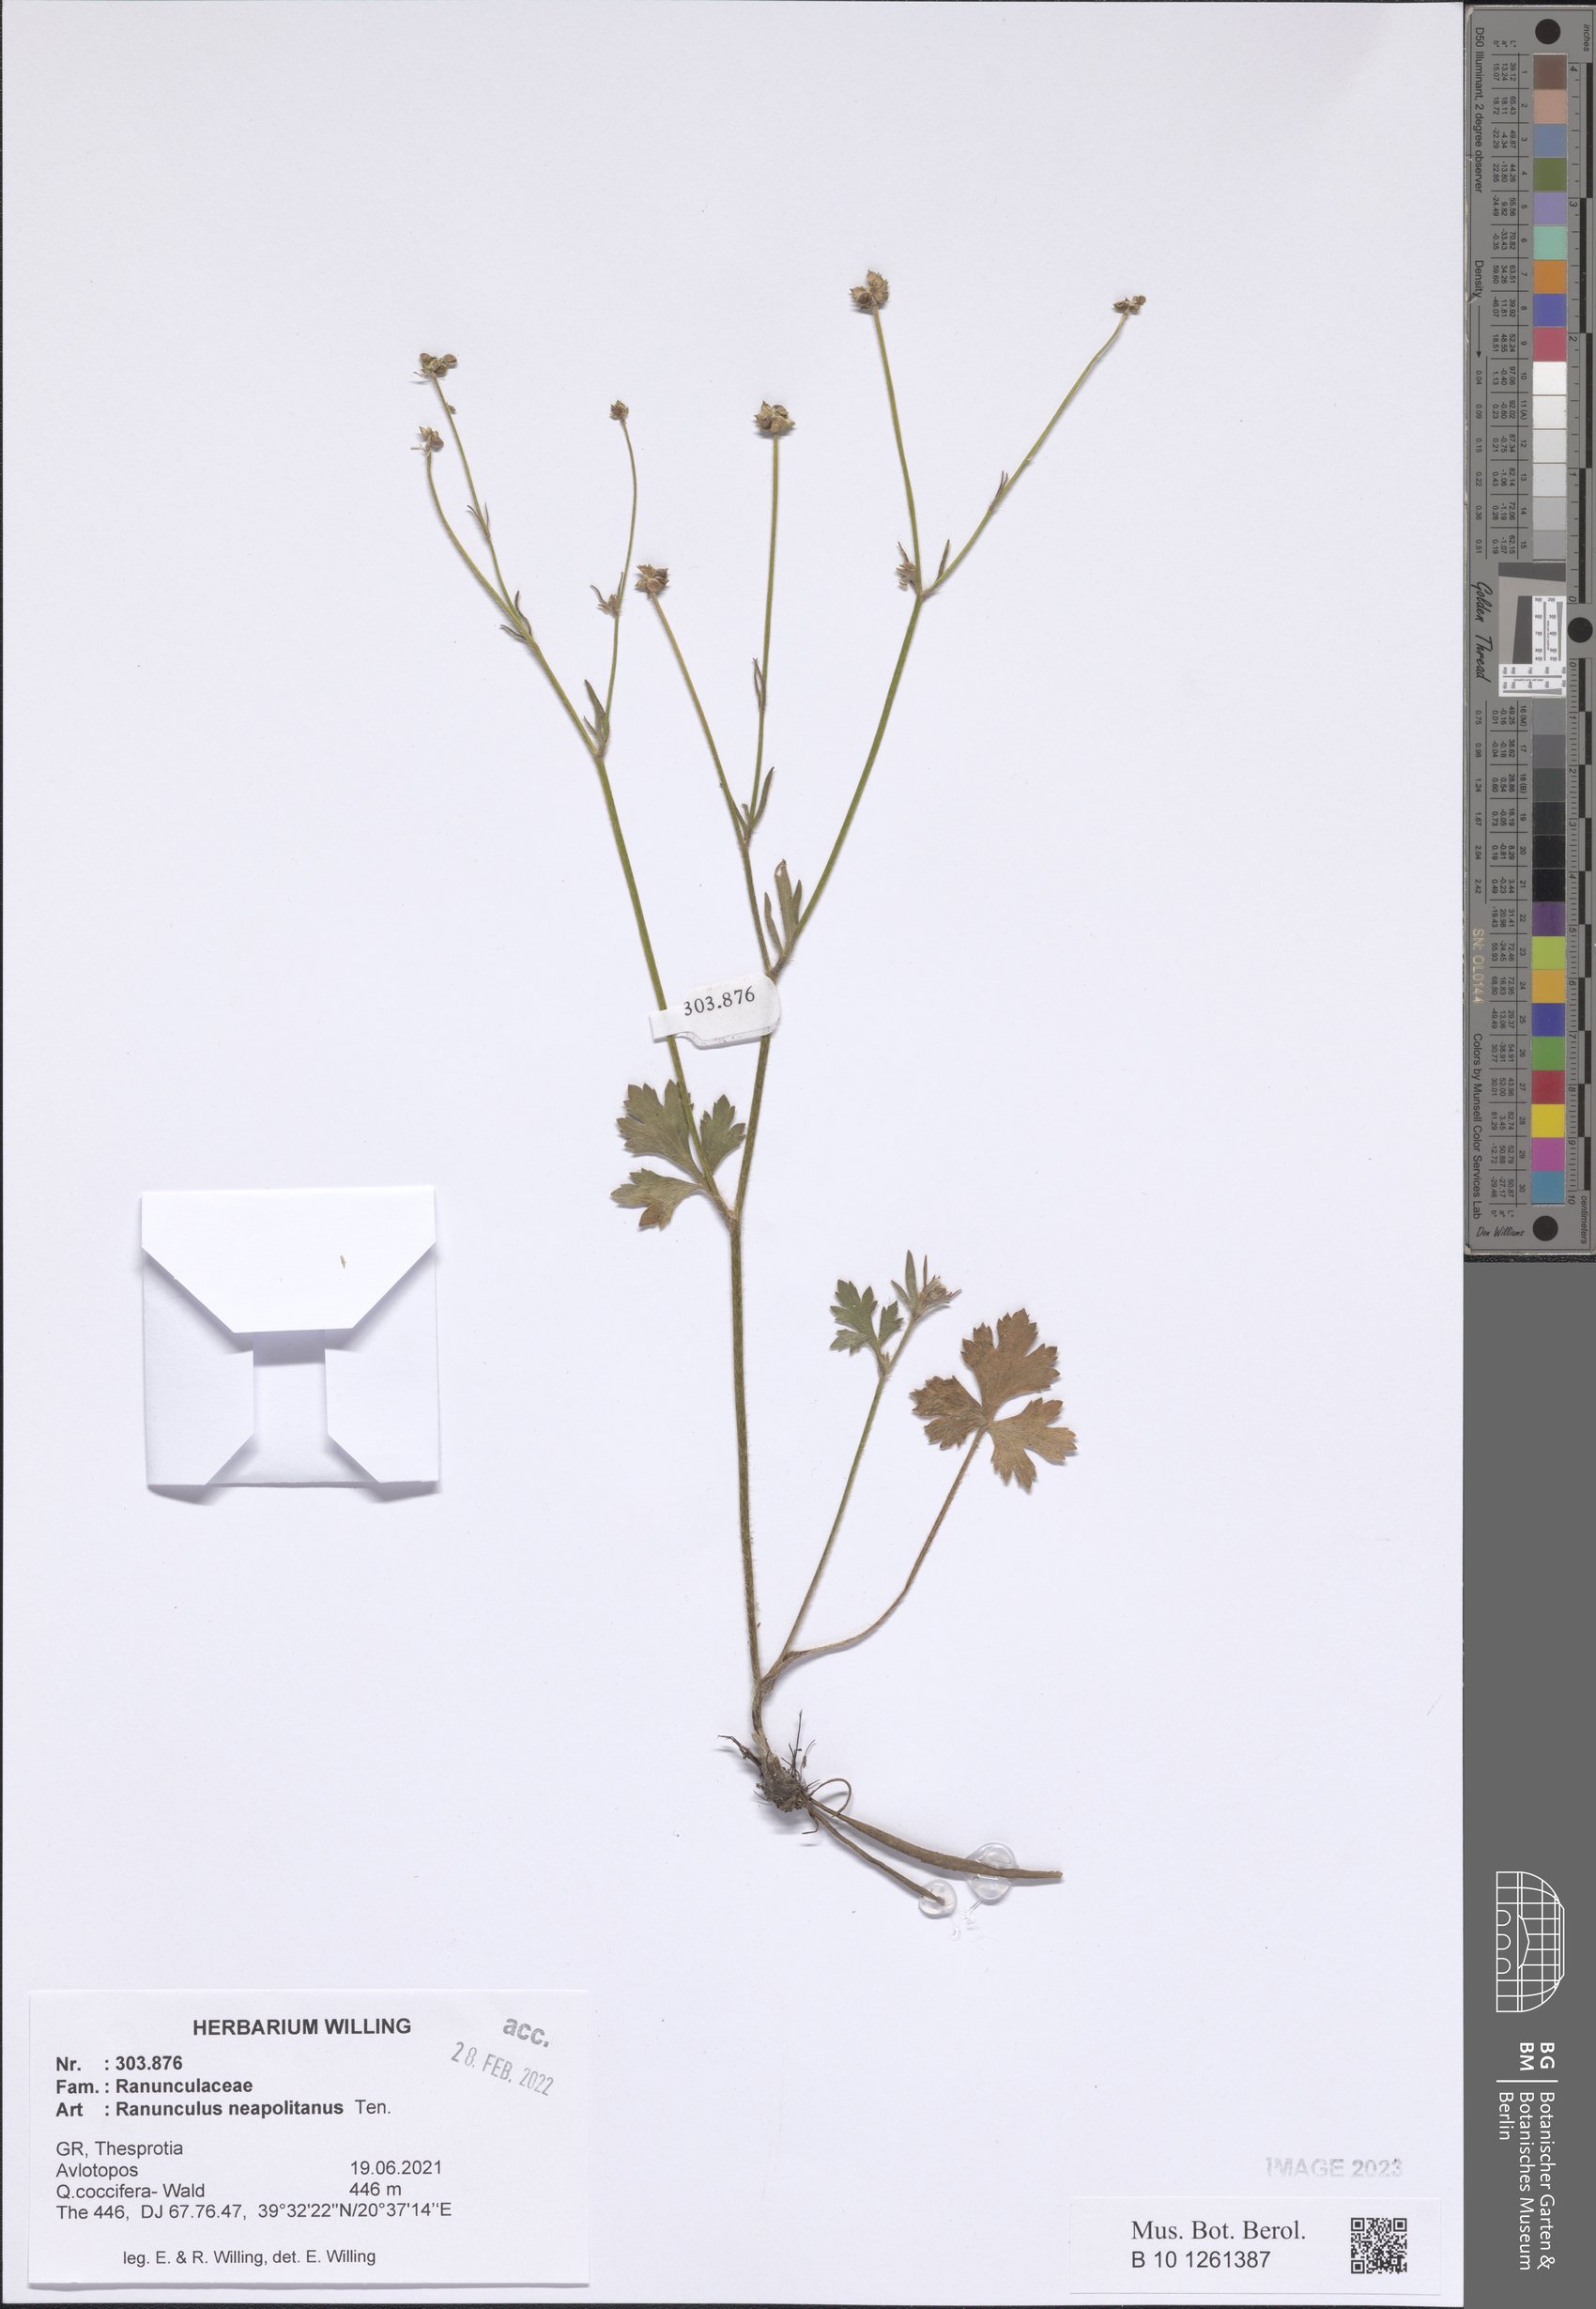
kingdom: Plantae
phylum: Tracheophyta
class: Magnoliopsida
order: Ranunculales
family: Ranunculaceae
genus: Ranunculus
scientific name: Ranunculus neapolitanus
